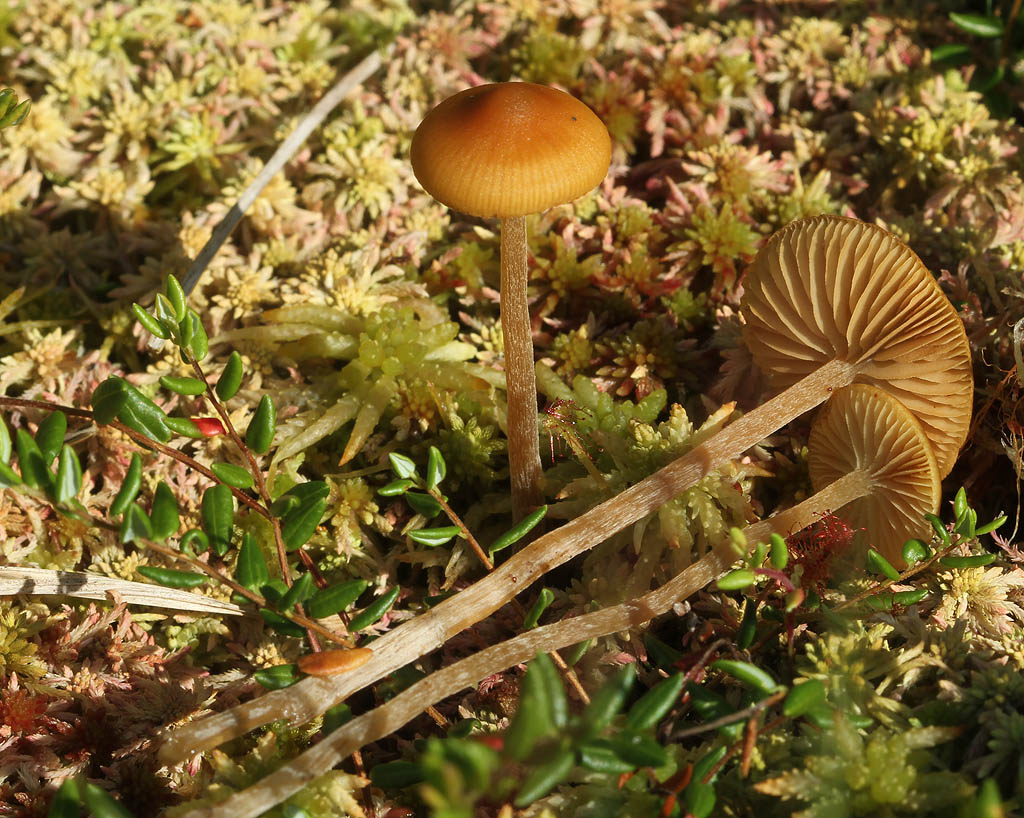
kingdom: Fungi
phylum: Basidiomycota
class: Agaricomycetes
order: Agaricales
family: Hymenogastraceae
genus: Galerina
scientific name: Galerina hybrida
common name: hængesæk-hjelmhat
